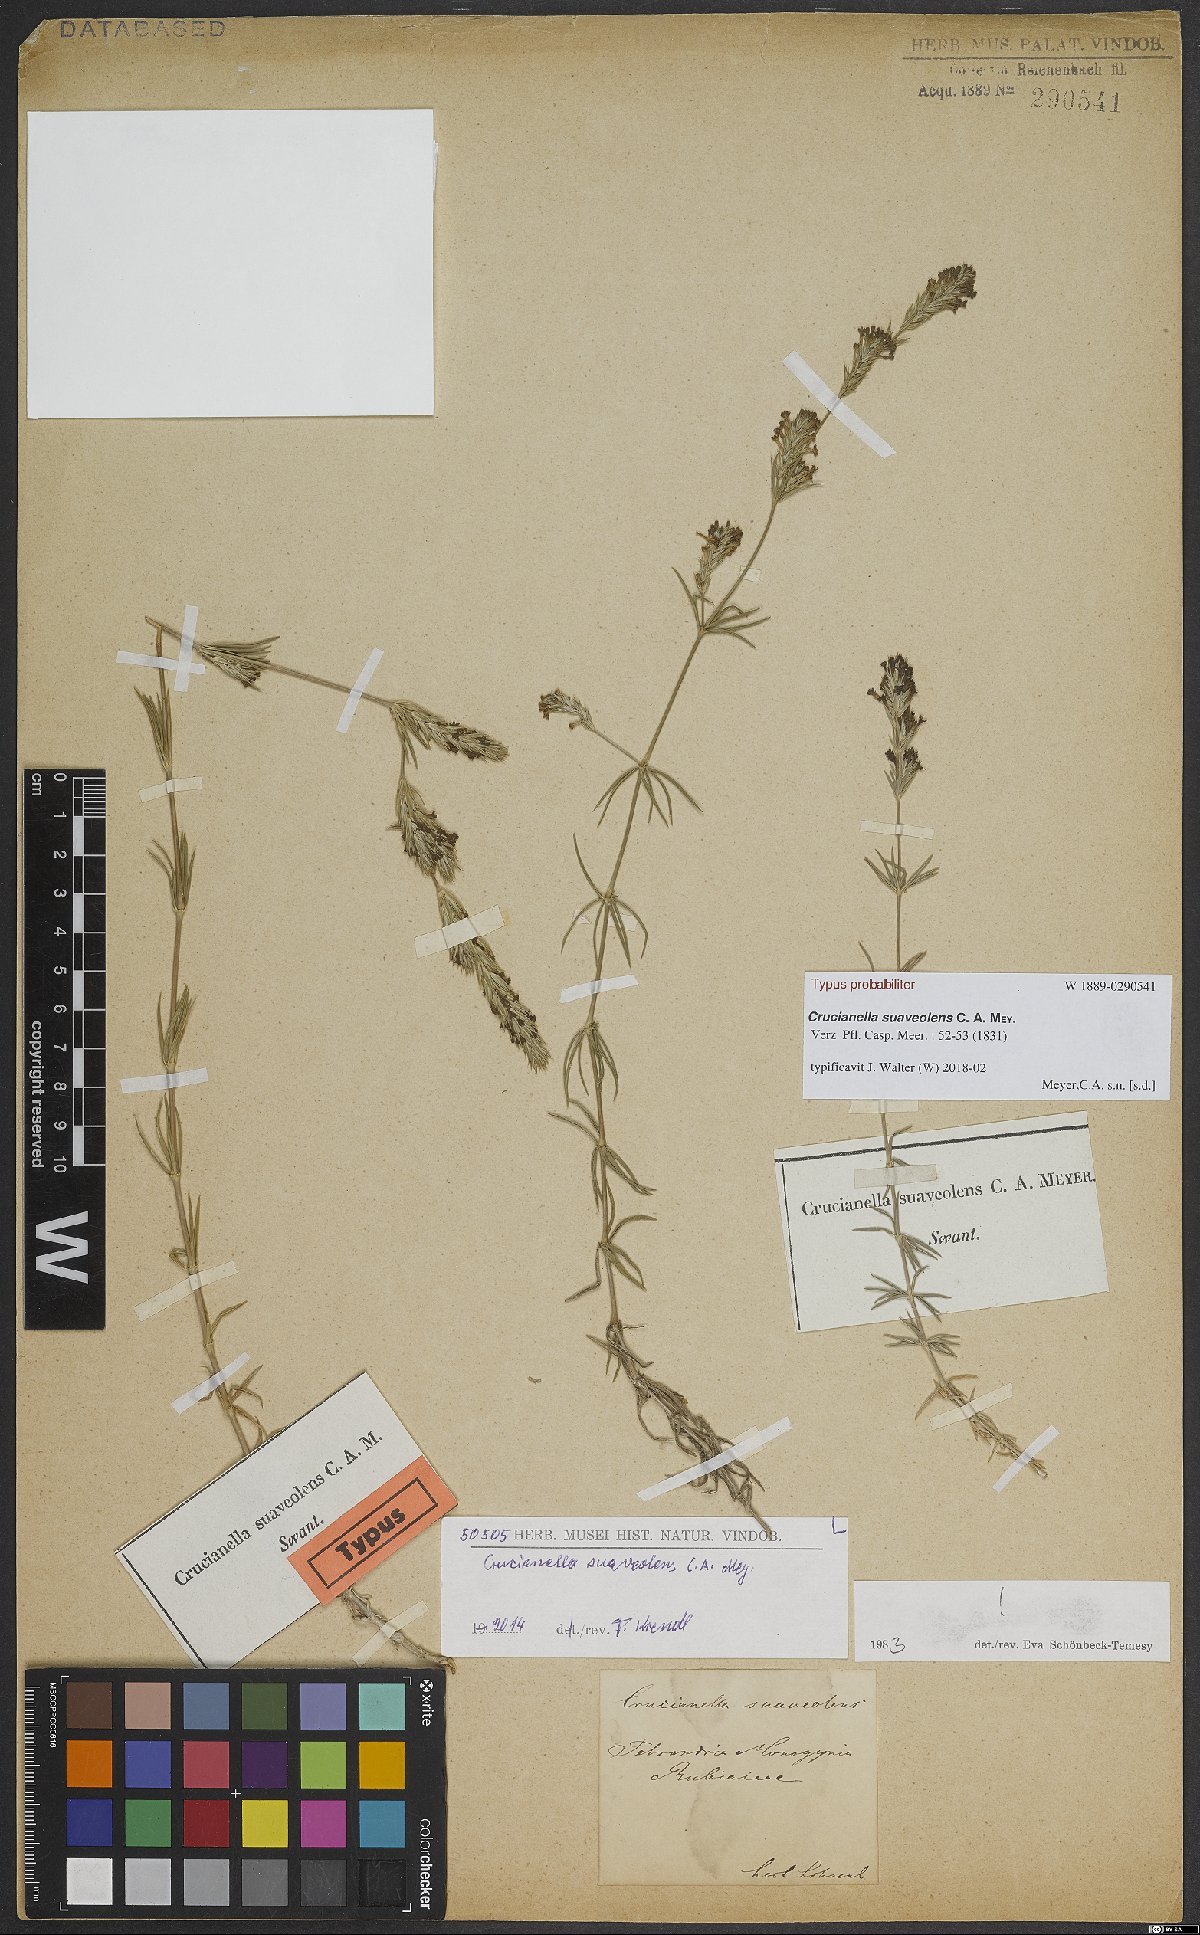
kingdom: Plantae
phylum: Tracheophyta
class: Magnoliopsida
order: Gentianales
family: Rubiaceae
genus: Crucianella
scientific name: Crucianella suaveolens
